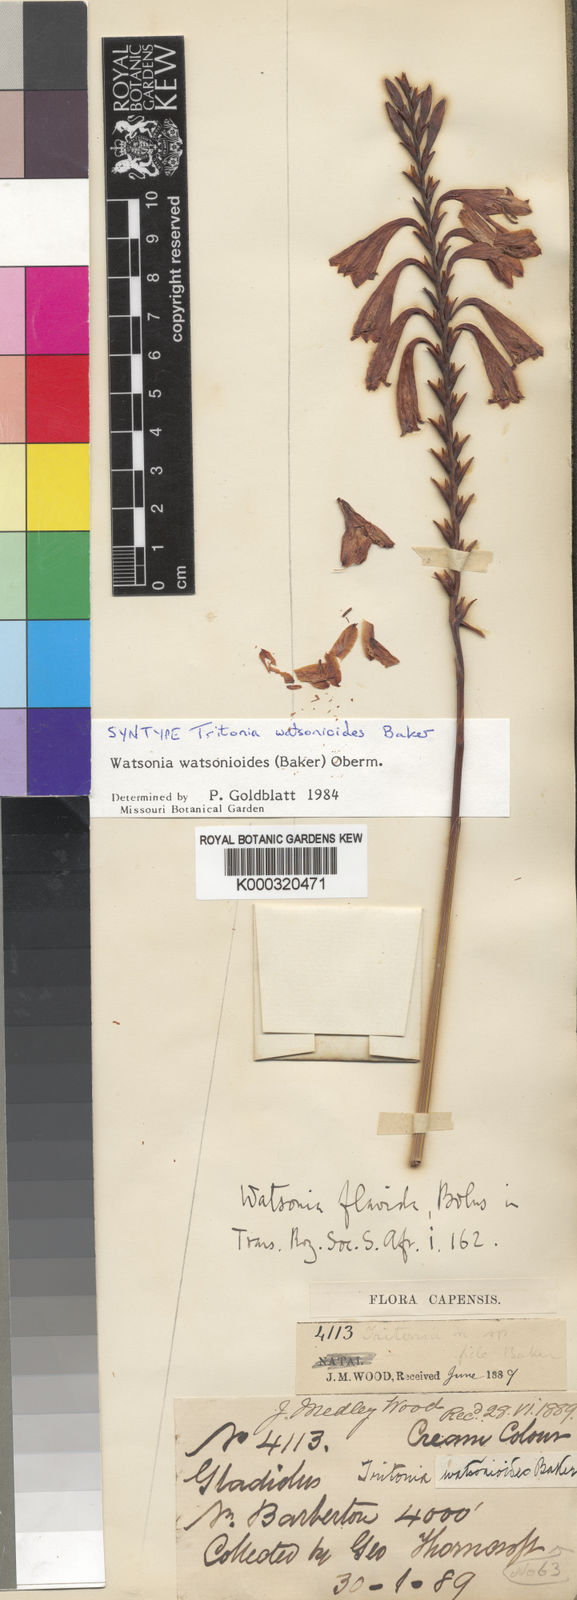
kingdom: Plantae
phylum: Tracheophyta
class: Liliopsida
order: Asparagales
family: Iridaceae
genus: Watsonia
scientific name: Watsonia watsonioides
